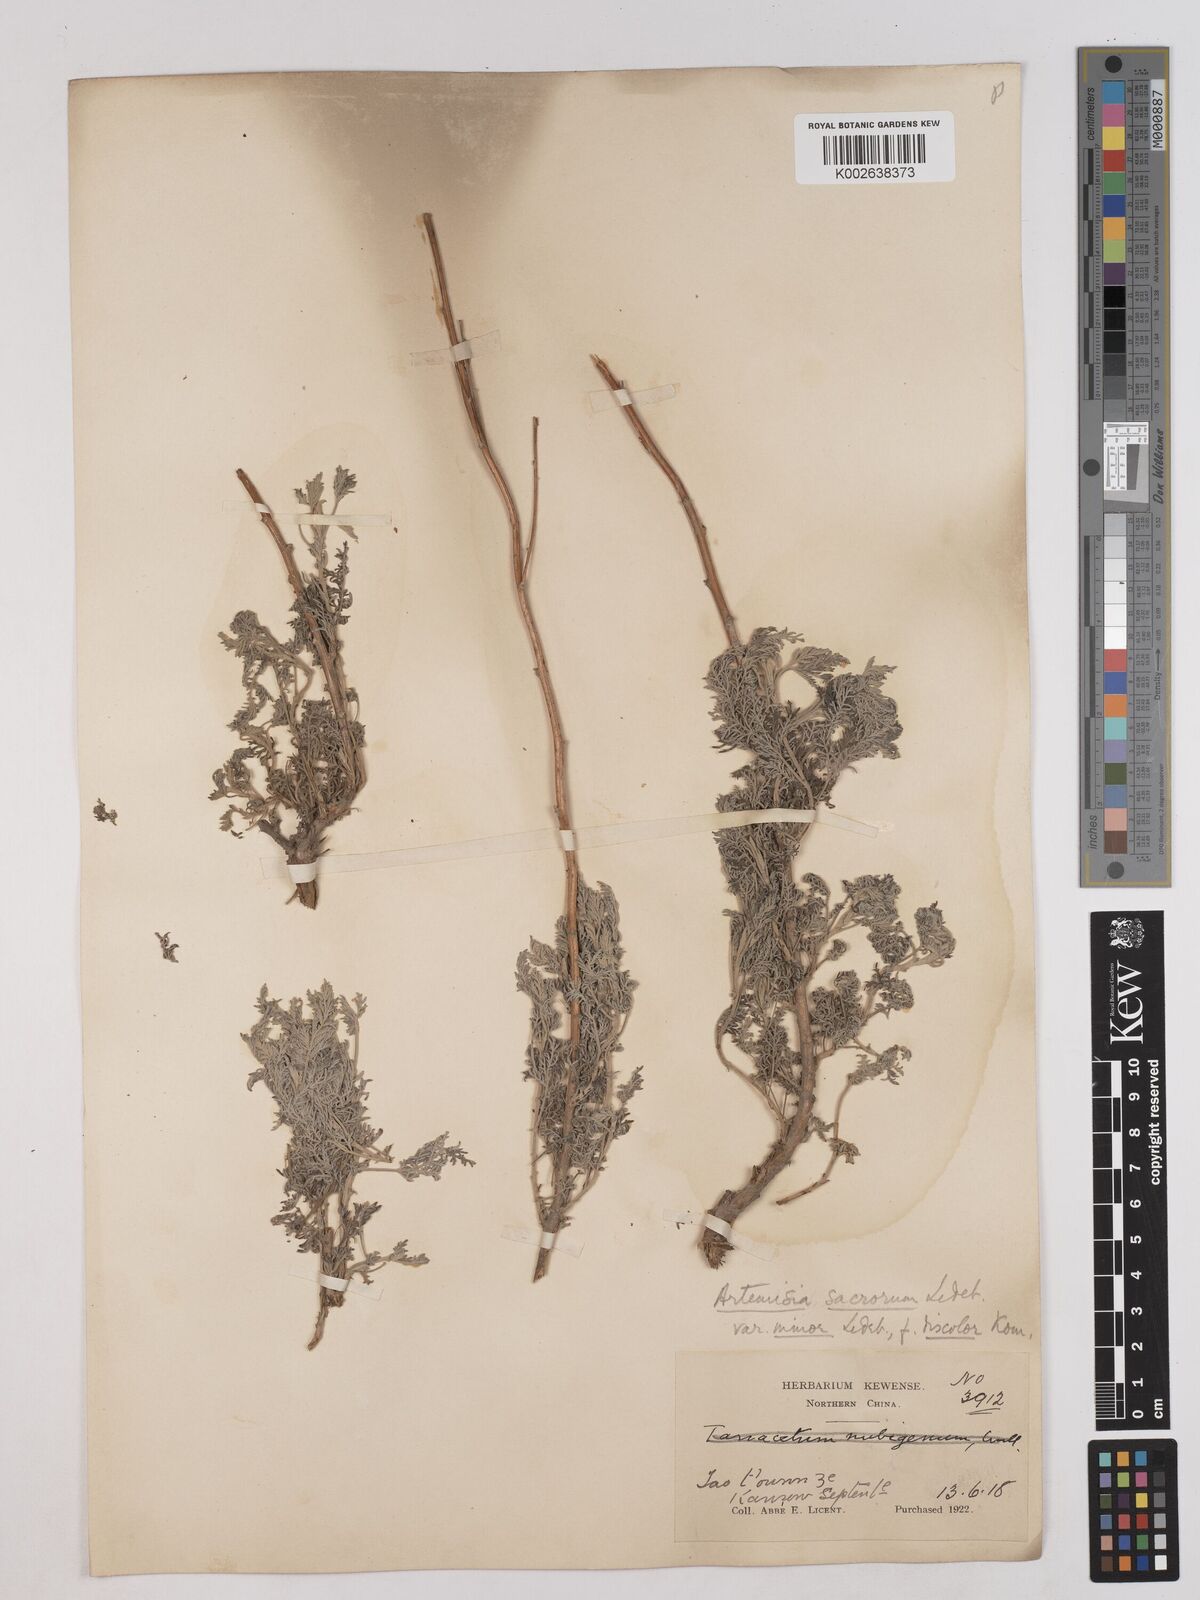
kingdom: Plantae
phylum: Tracheophyta
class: Magnoliopsida
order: Asterales
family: Asteraceae
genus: Artemisia
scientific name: Artemisia gmelinii
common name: Gmelin's wormwood
